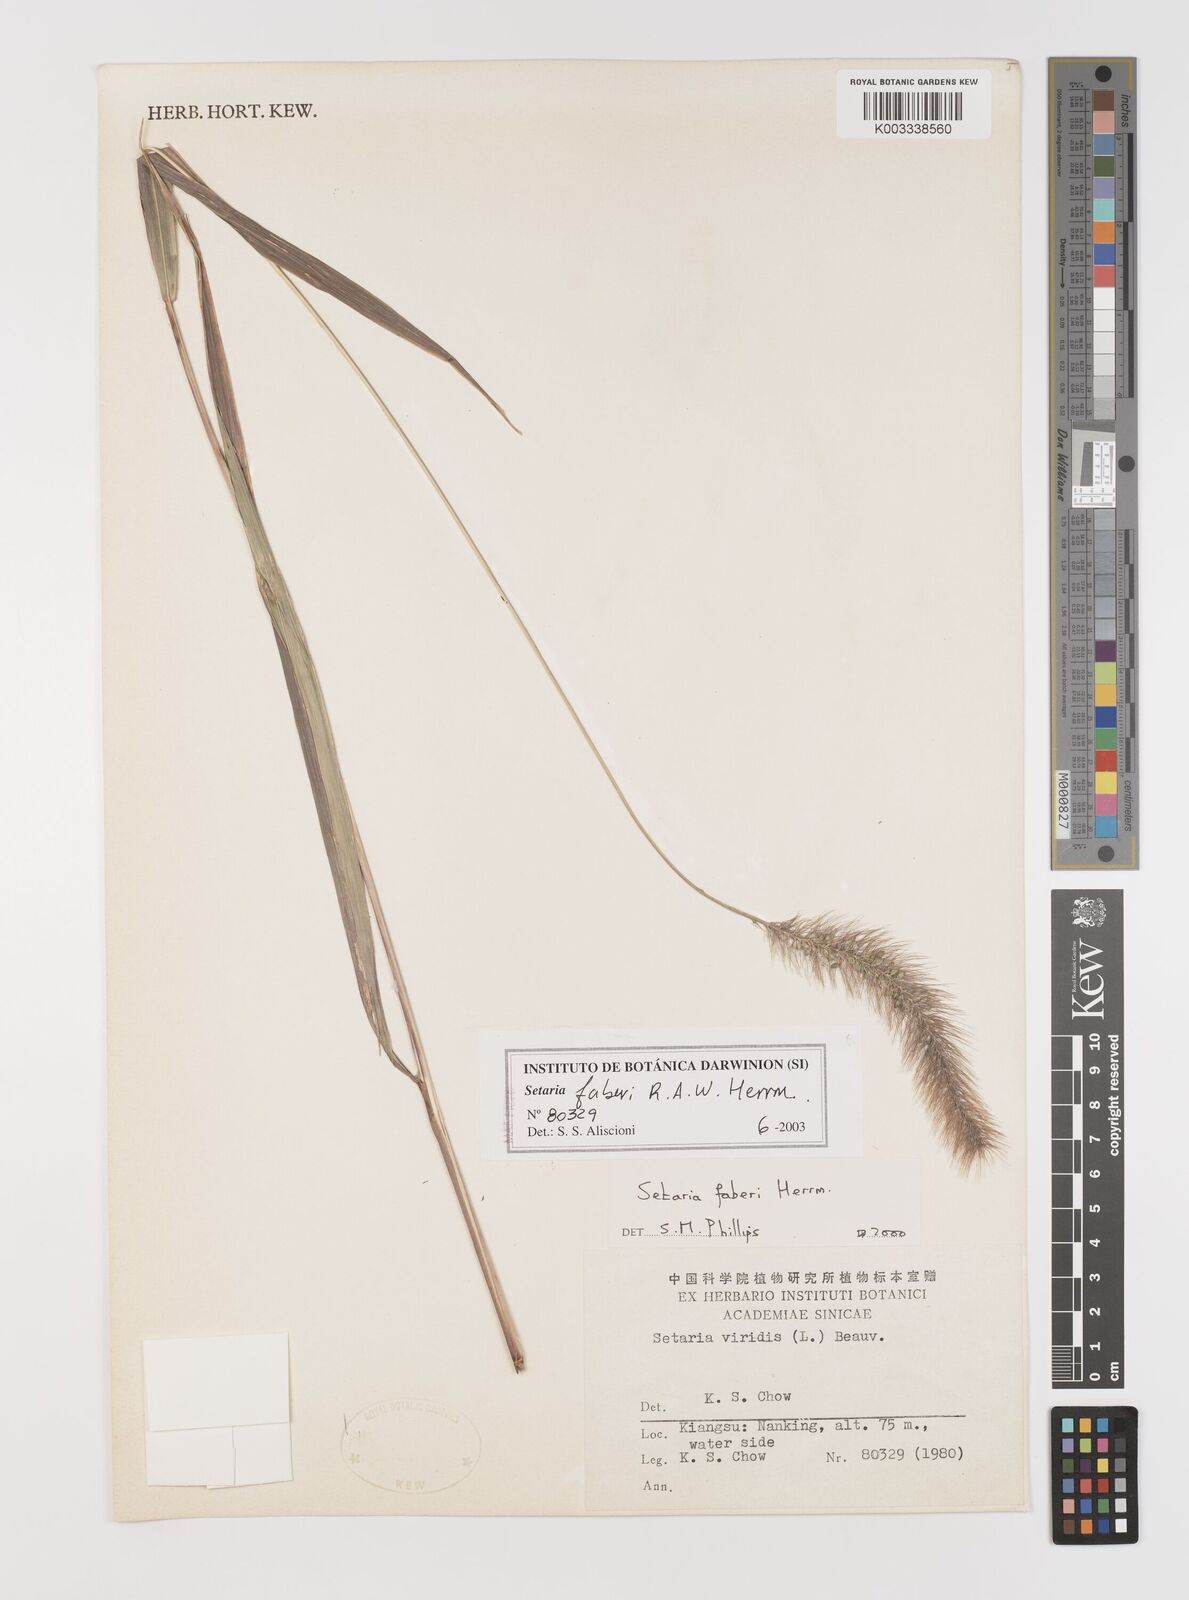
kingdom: Plantae
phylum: Tracheophyta
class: Liliopsida
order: Poales
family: Poaceae
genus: Setaria
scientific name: Setaria faberi
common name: Nodding bristle-grass
